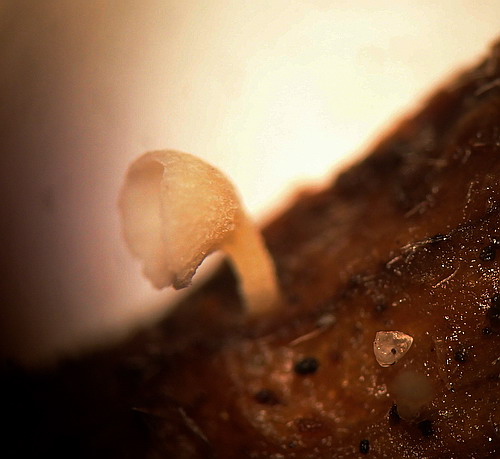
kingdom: Fungi
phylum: Basidiomycota
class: Agaricomycetes
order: Agaricales
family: Marasmiaceae
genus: Calyptella
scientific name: Calyptella campanula
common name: gul nældehue
